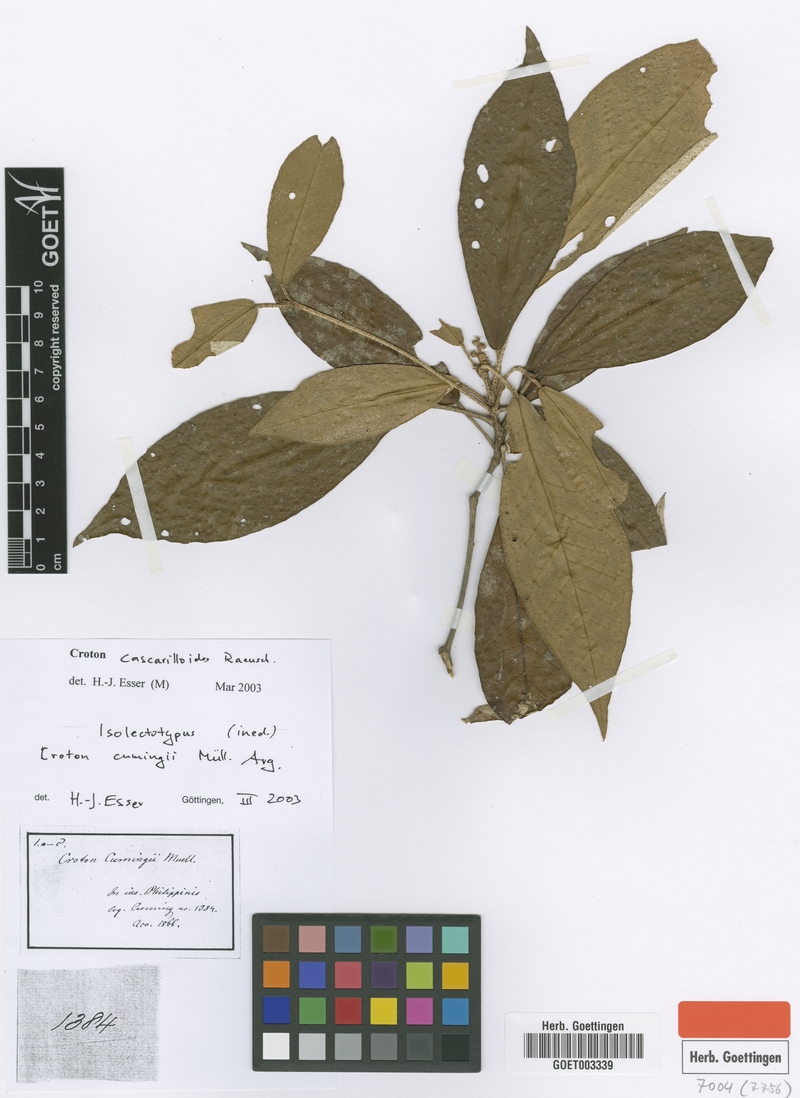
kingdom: Plantae
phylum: Tracheophyta
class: Magnoliopsida
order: Malpighiales
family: Euphorbiaceae
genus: Croton
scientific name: Croton cascarilloides
